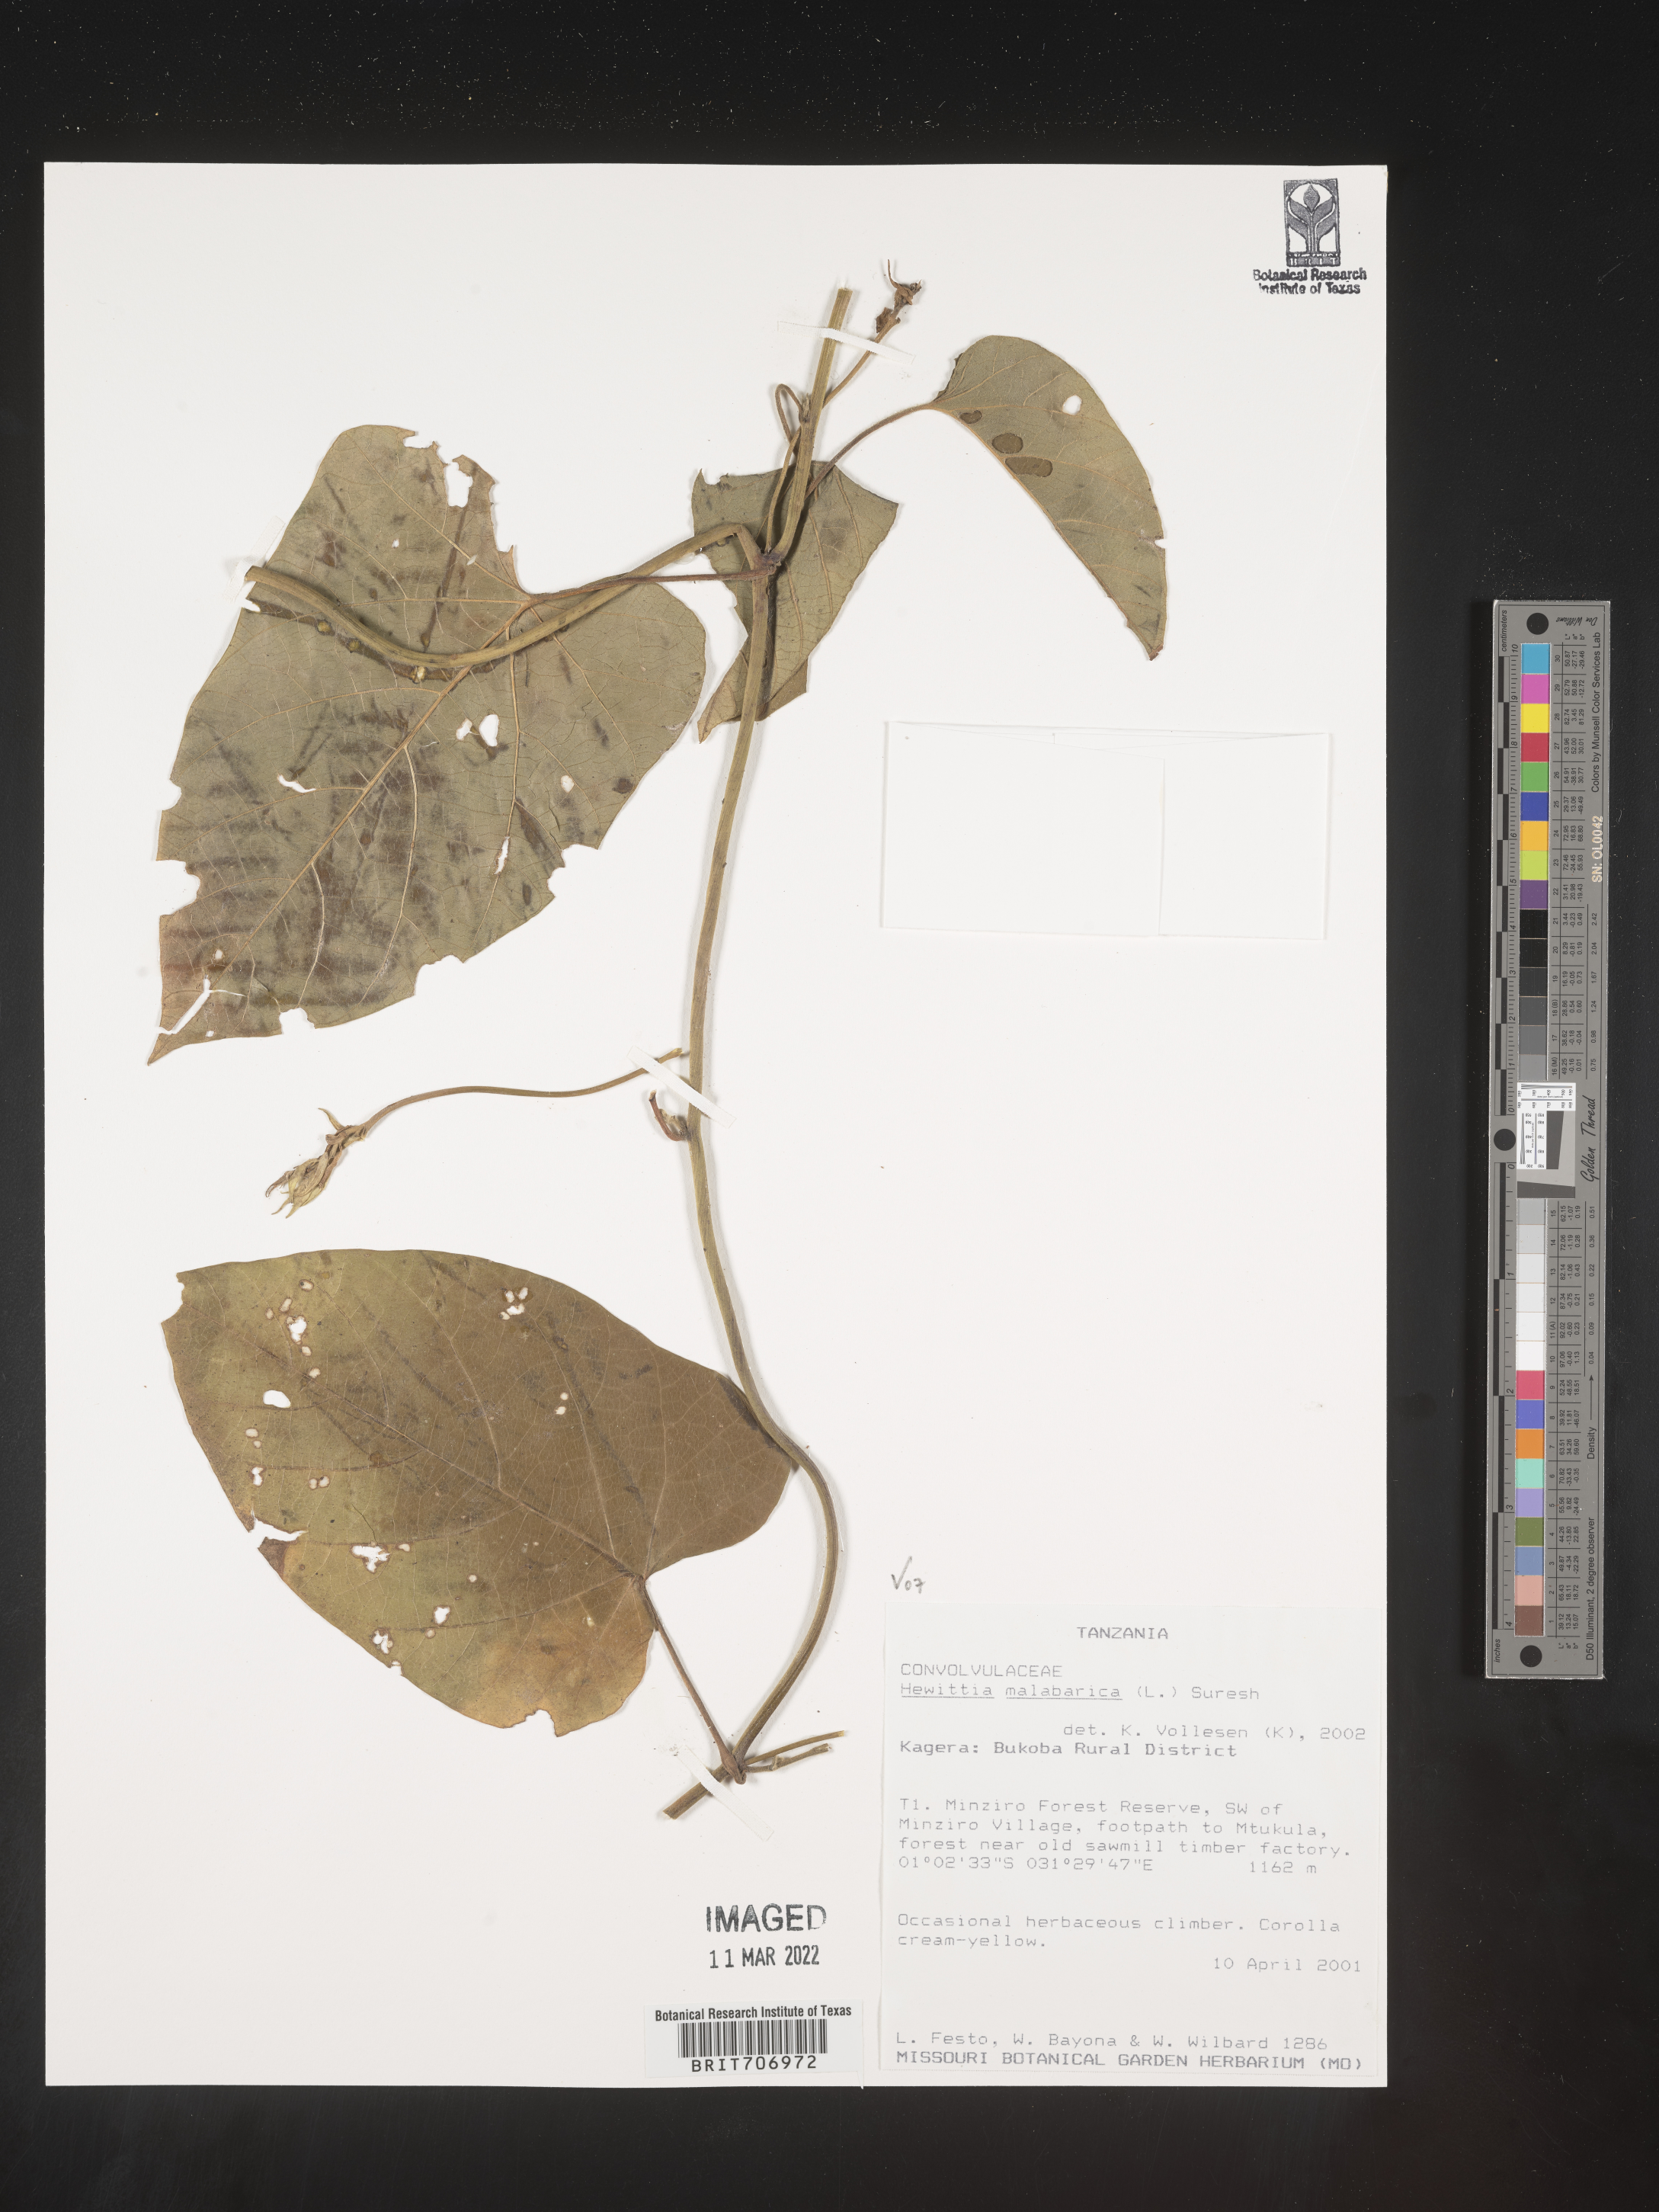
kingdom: Plantae
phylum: Tracheophyta
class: Magnoliopsida
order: Solanales
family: Convolvulaceae
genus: Hewittia
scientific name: Hewittia
